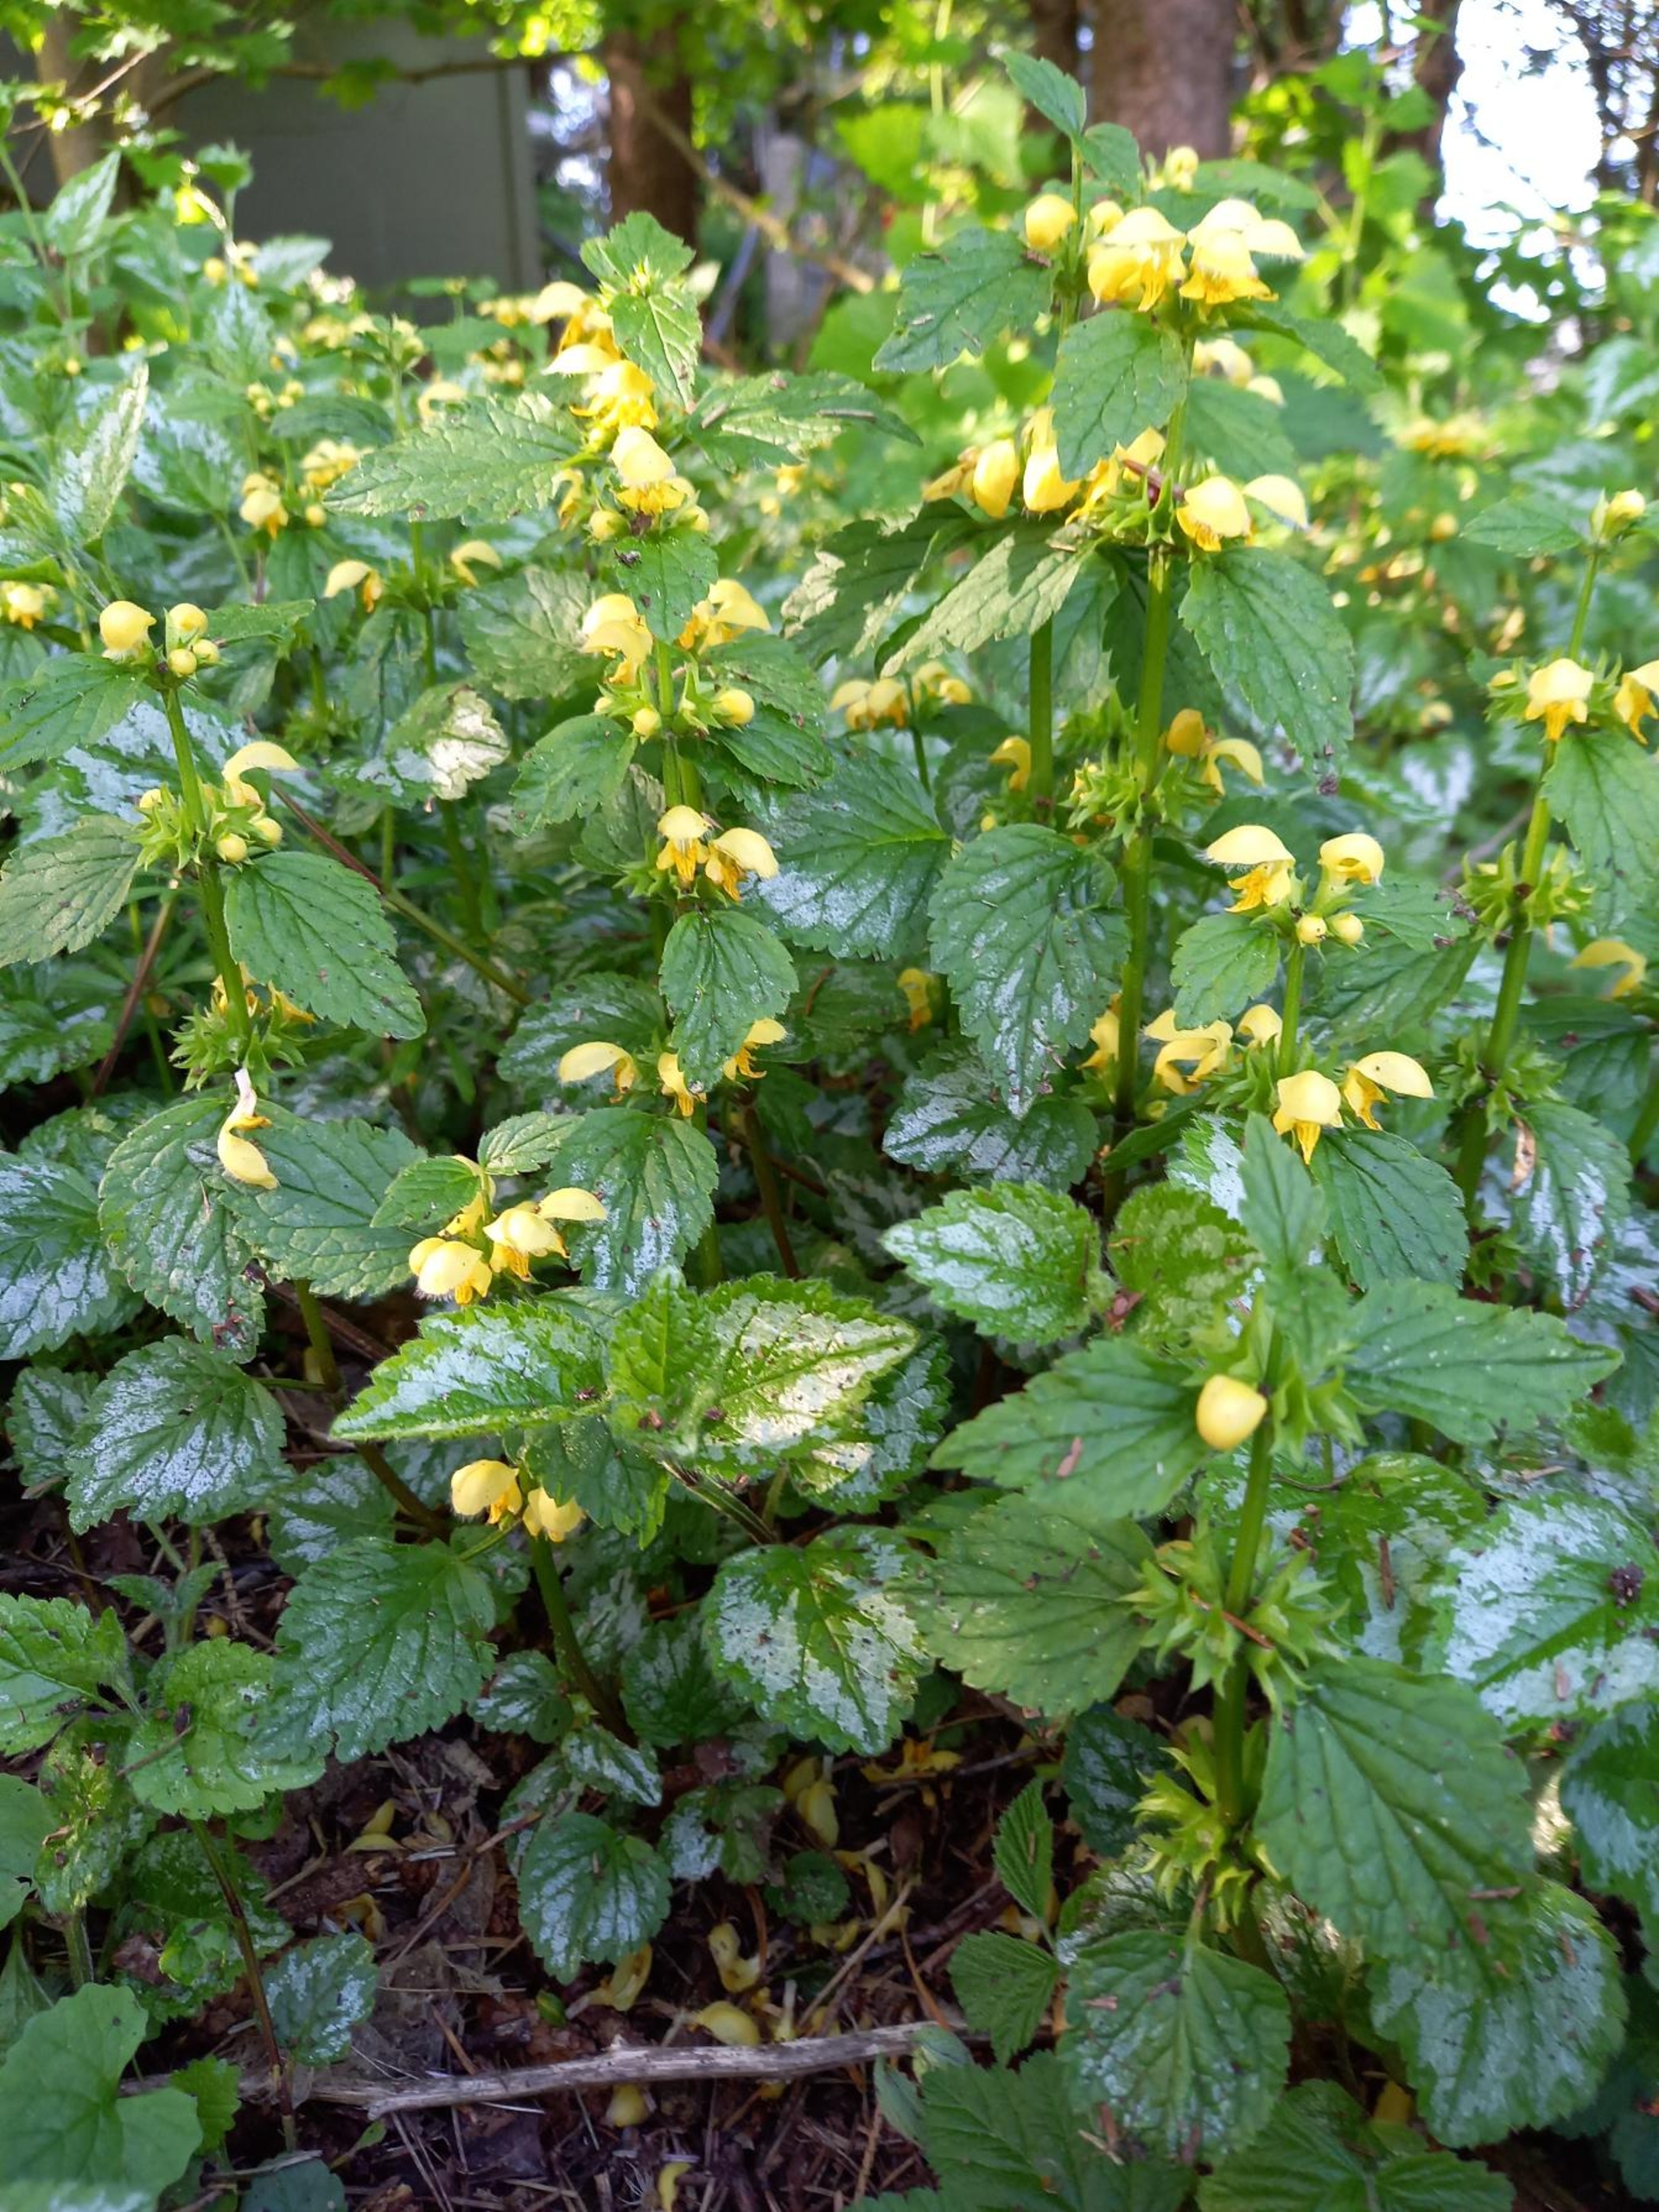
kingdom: Plantae
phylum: Tracheophyta
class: Magnoliopsida
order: Lamiales
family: Lamiaceae
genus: Lamium
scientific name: Lamium galeobdolon
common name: Have-guldnælde
